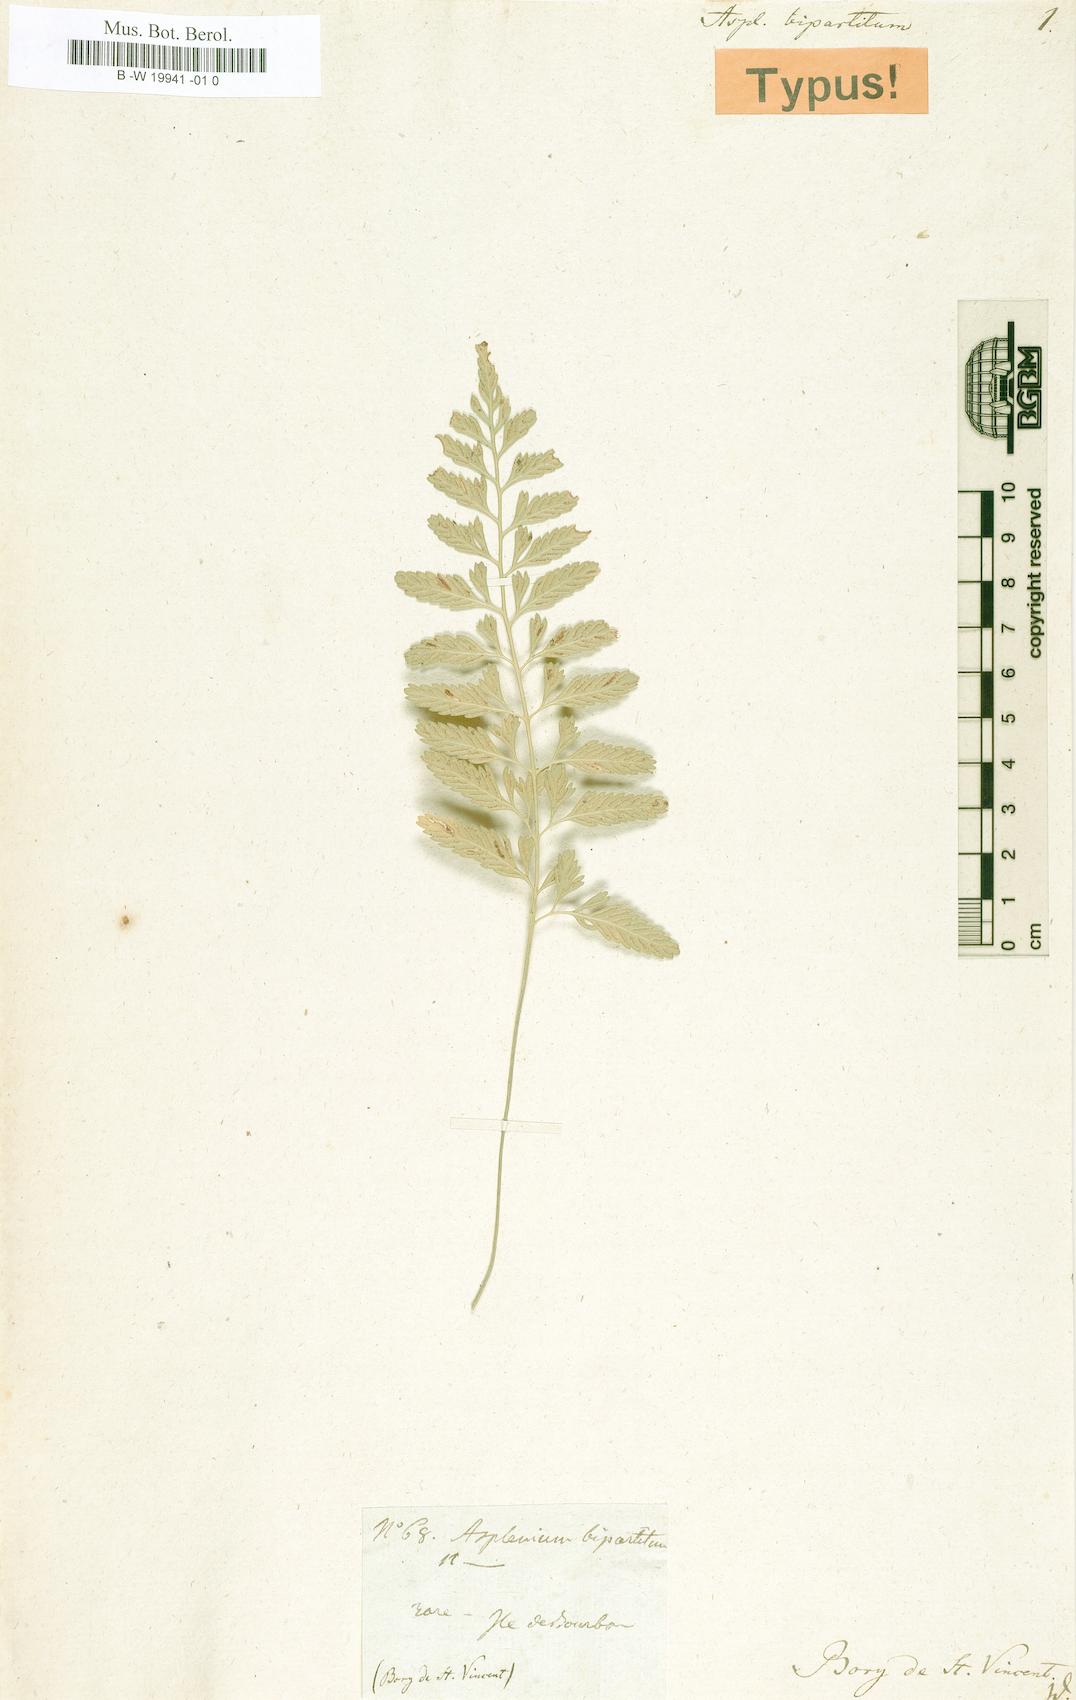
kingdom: Plantae
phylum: Tracheophyta
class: Polypodiopsida
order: Polypodiales
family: Aspleniaceae
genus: Asplenium
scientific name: Asplenium bipartitum
